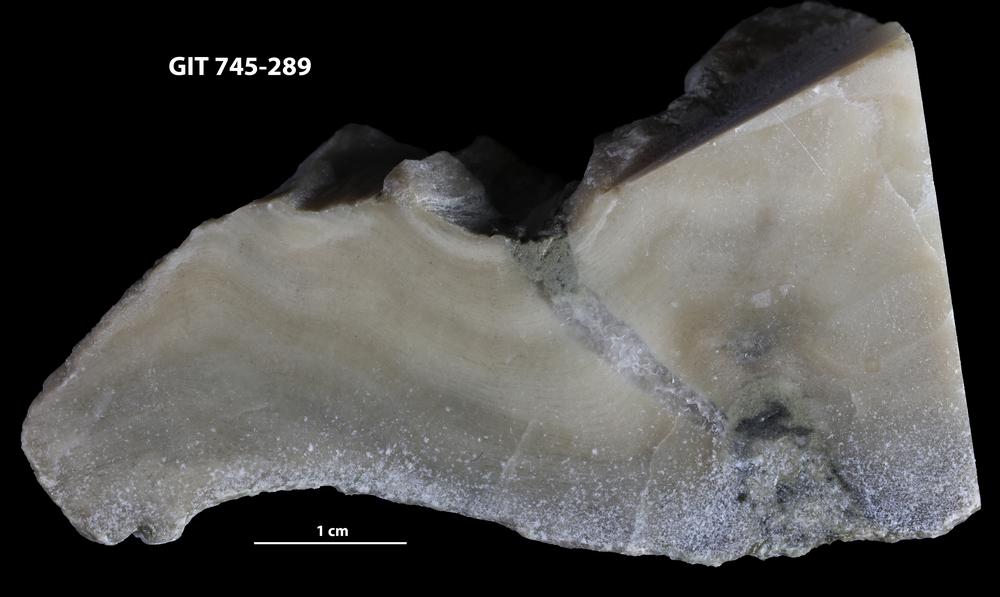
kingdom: Animalia
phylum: Porifera
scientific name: Porifera
